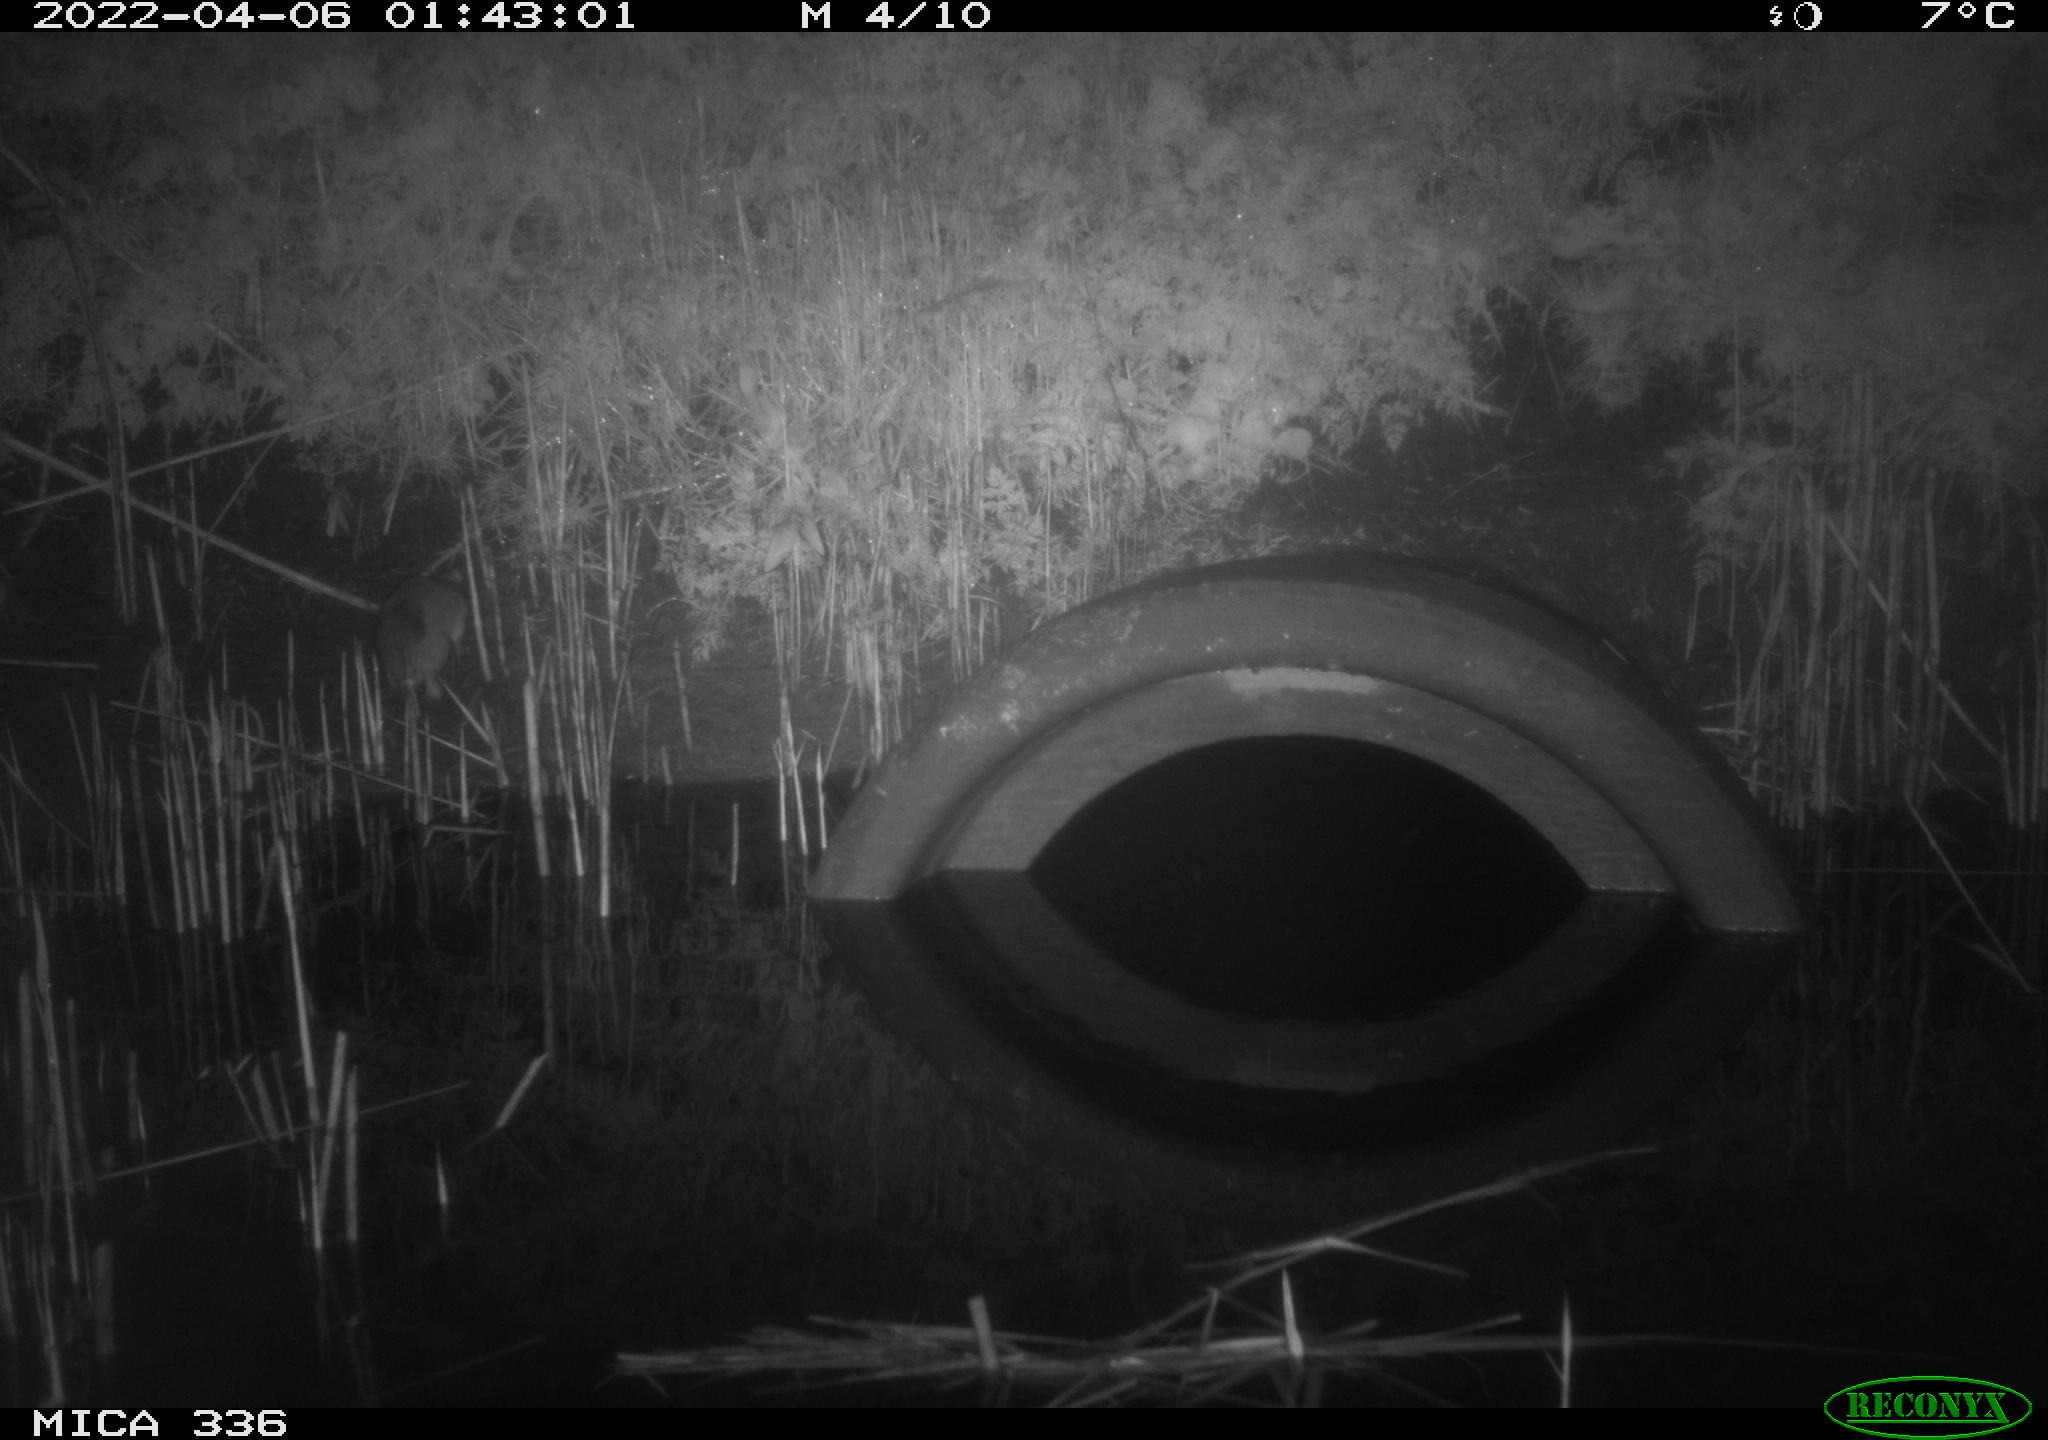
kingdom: Animalia
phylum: Chordata
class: Mammalia
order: Rodentia
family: Muridae
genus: Rattus
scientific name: Rattus norvegicus
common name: Brown rat
